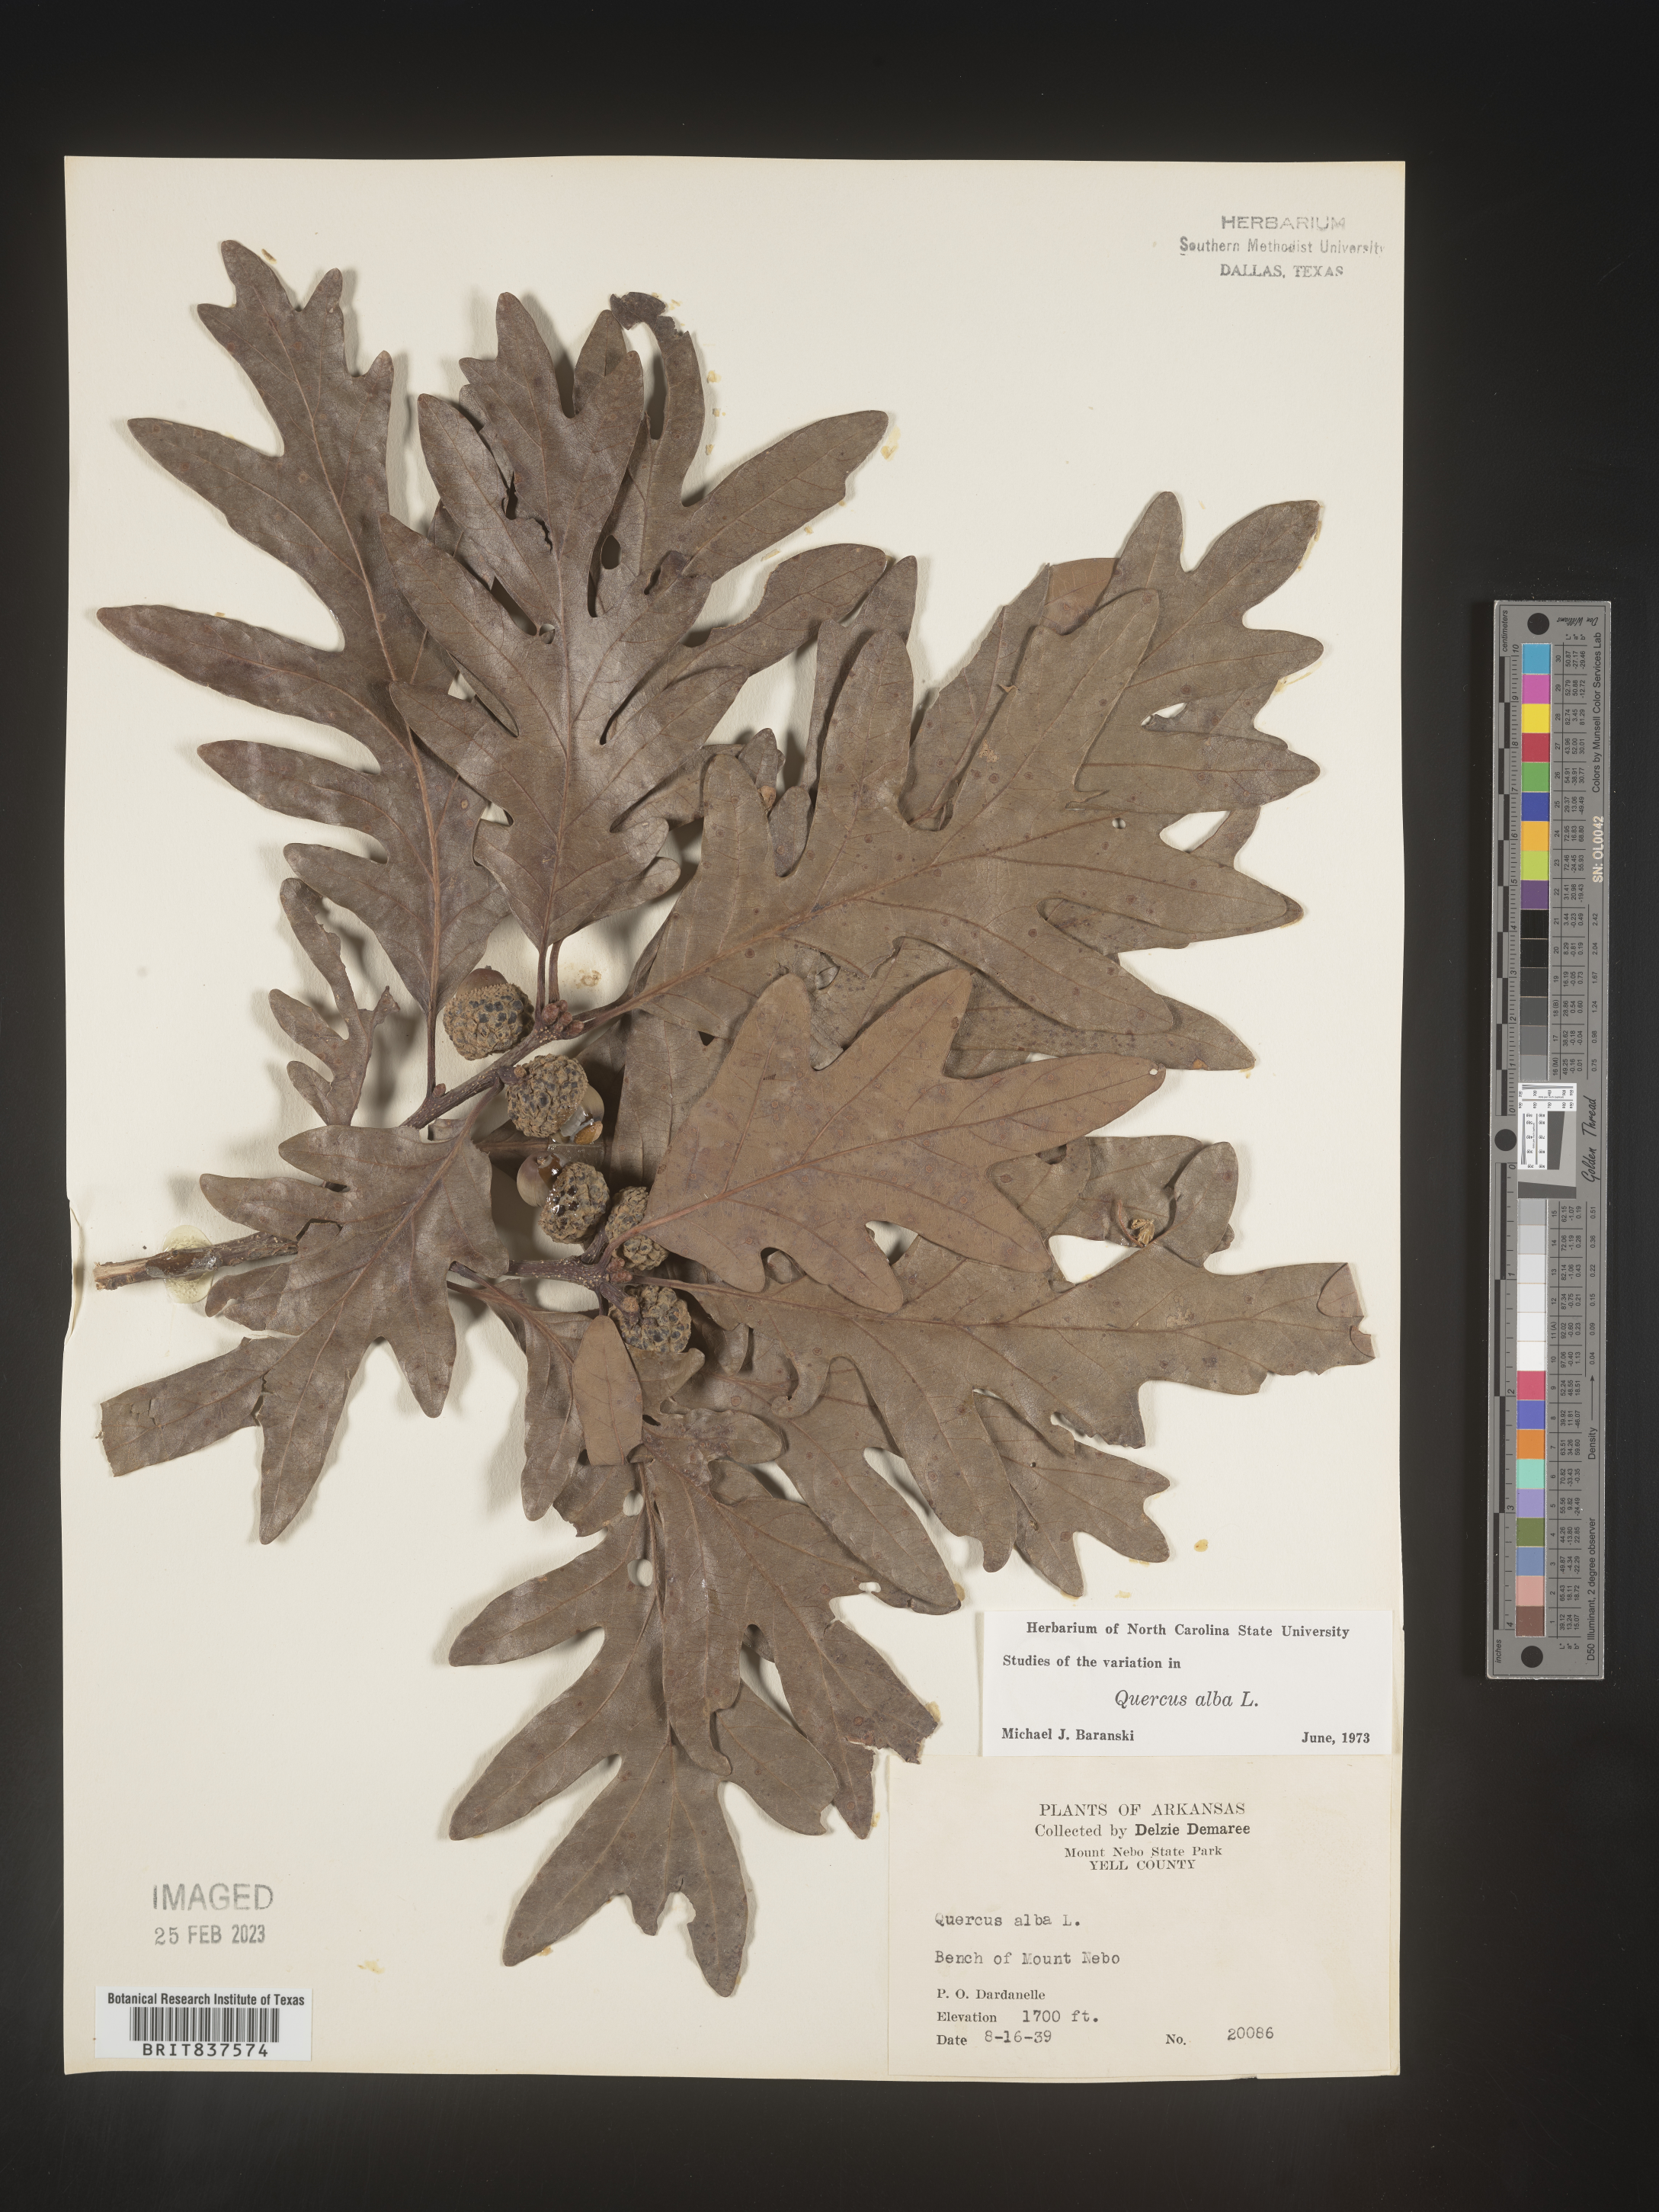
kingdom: Plantae
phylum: Tracheophyta
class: Magnoliopsida
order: Fagales
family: Fagaceae
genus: Quercus
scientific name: Quercus alba
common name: White oak
